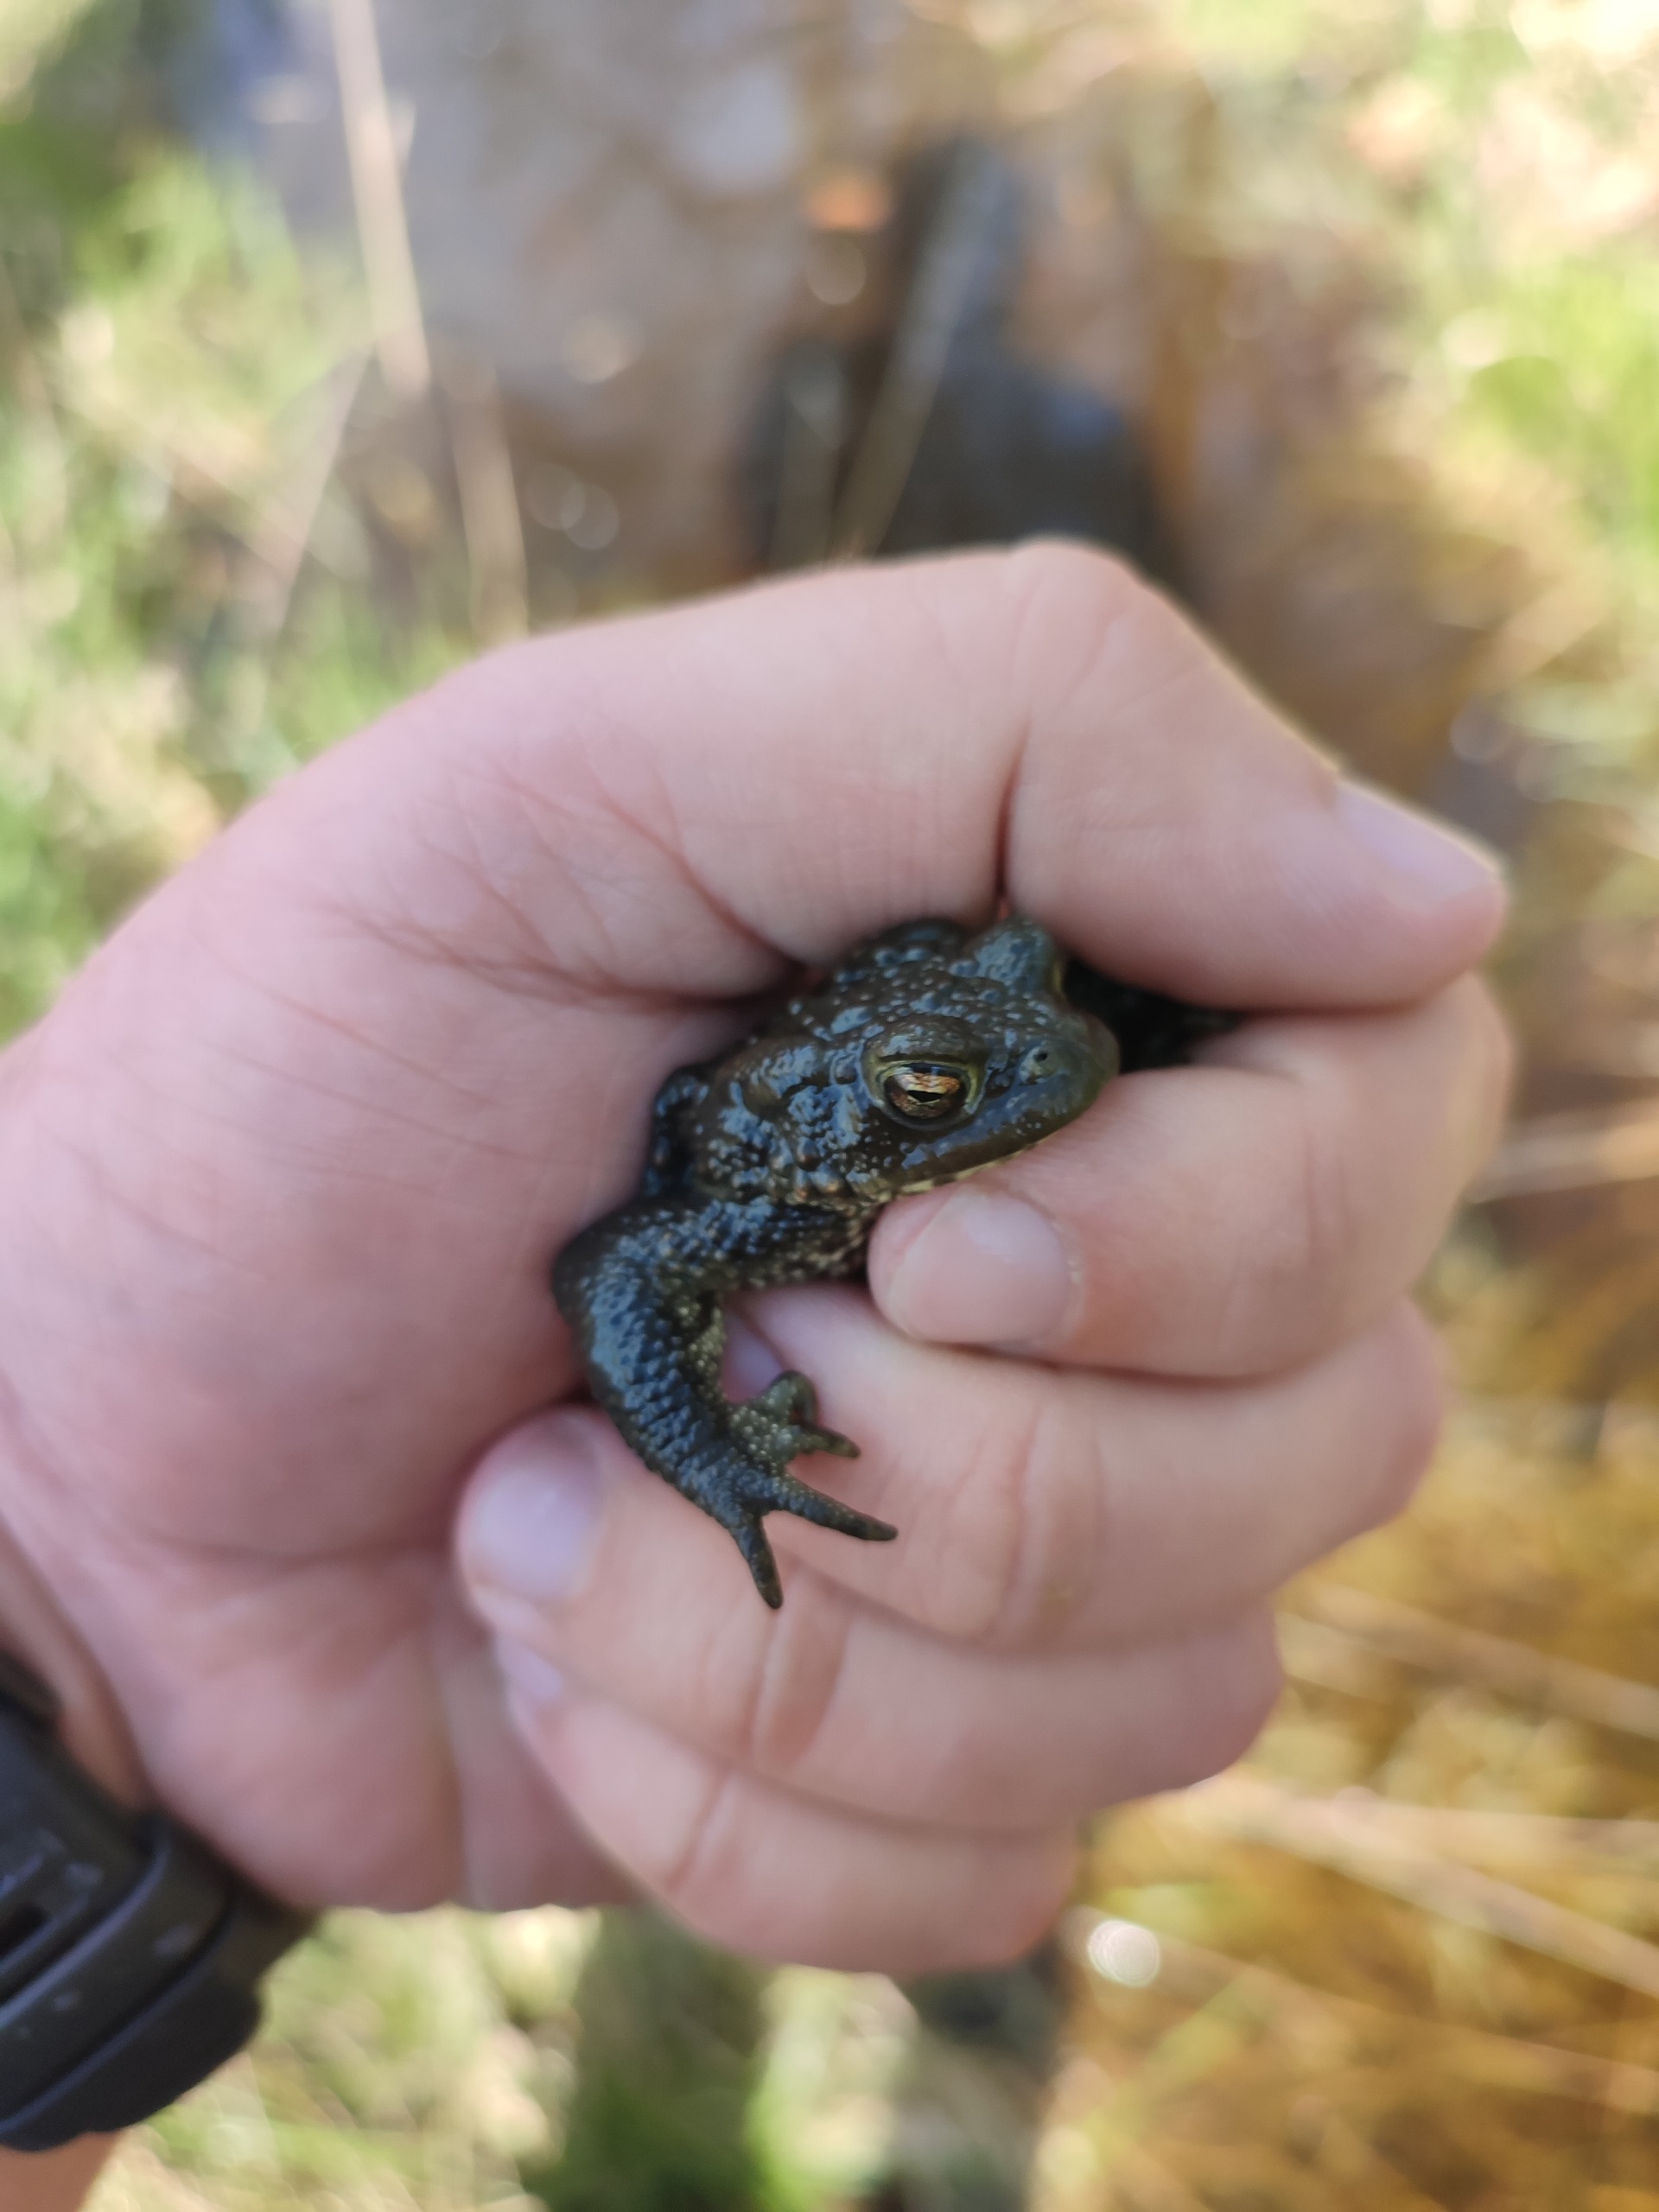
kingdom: Animalia
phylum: Chordata
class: Amphibia
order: Anura
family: Bufonidae
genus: Bufo
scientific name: Bufo bufo
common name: Skrubtudse
